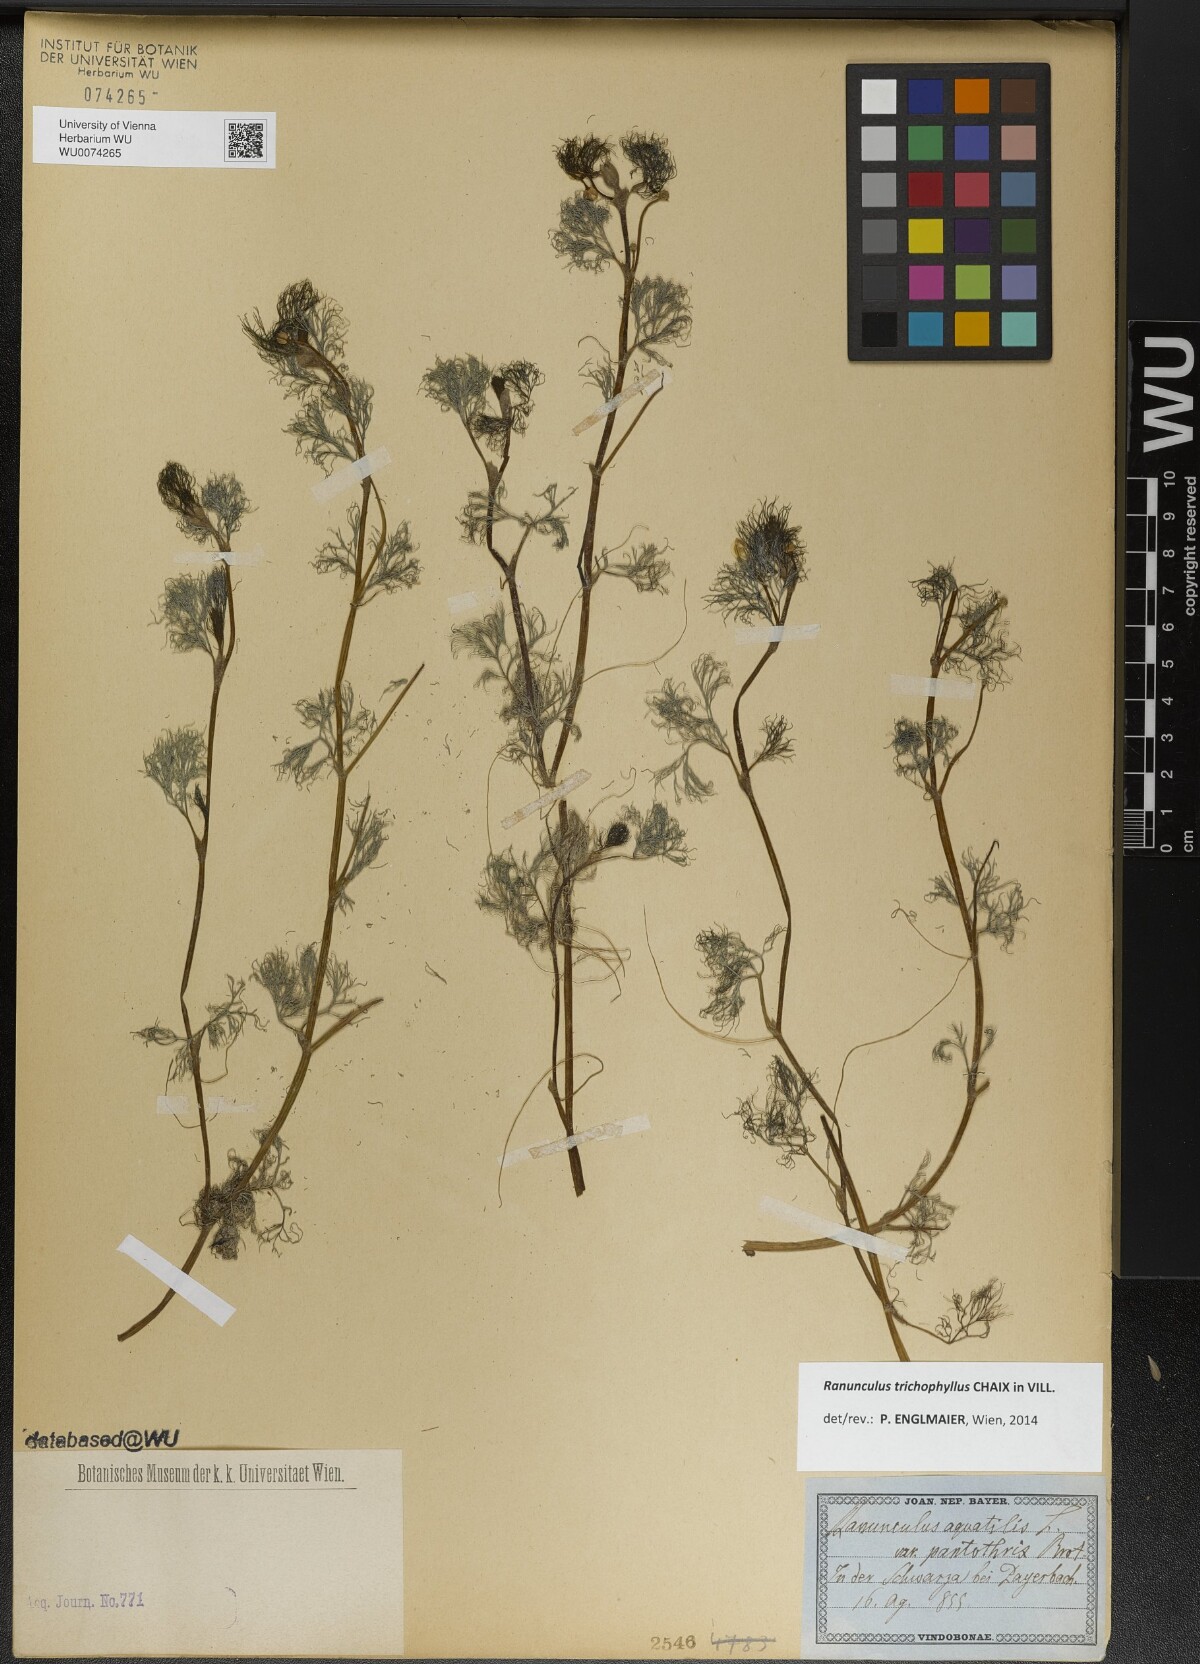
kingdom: Plantae
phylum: Tracheophyta
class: Magnoliopsida
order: Ranunculales
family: Ranunculaceae
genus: Ranunculus
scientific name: Ranunculus trichophyllus
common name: Thread-leaved water-crowfoot
